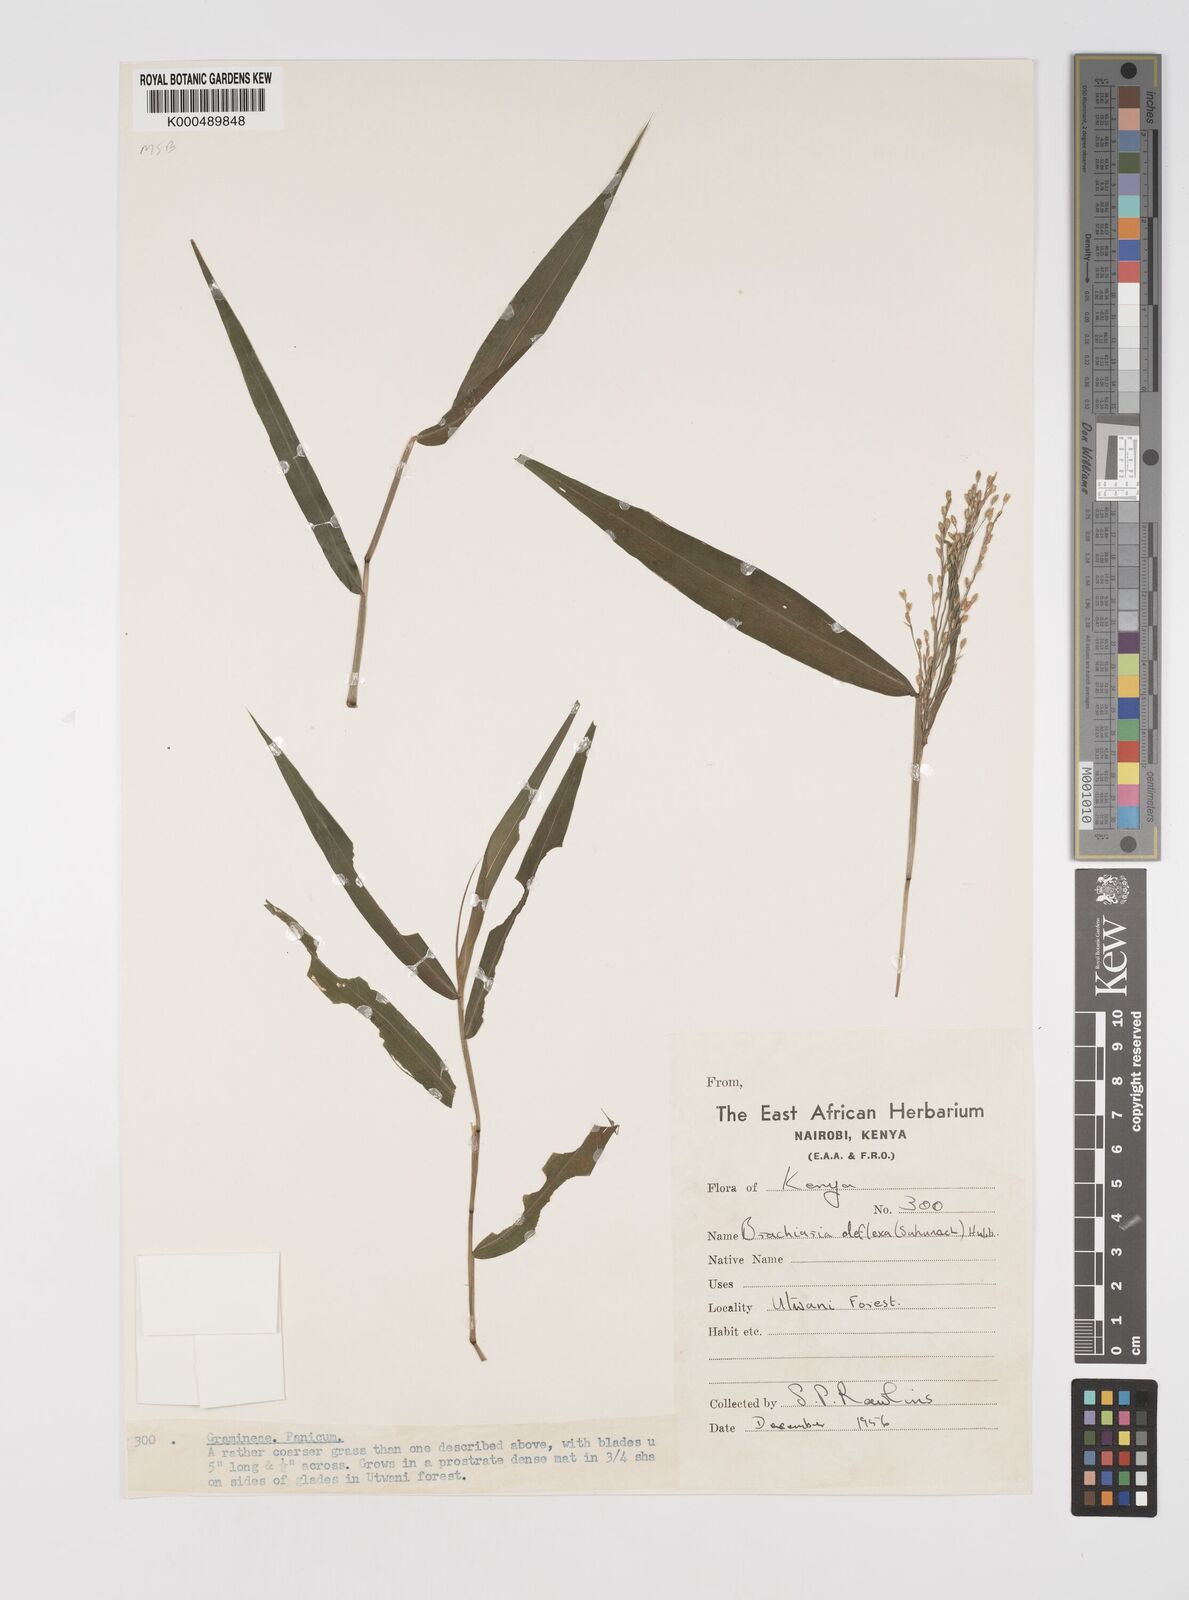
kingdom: Plantae
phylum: Tracheophyta
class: Liliopsida
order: Poales
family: Poaceae
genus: Acroceras
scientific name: Acroceras attenuatum
